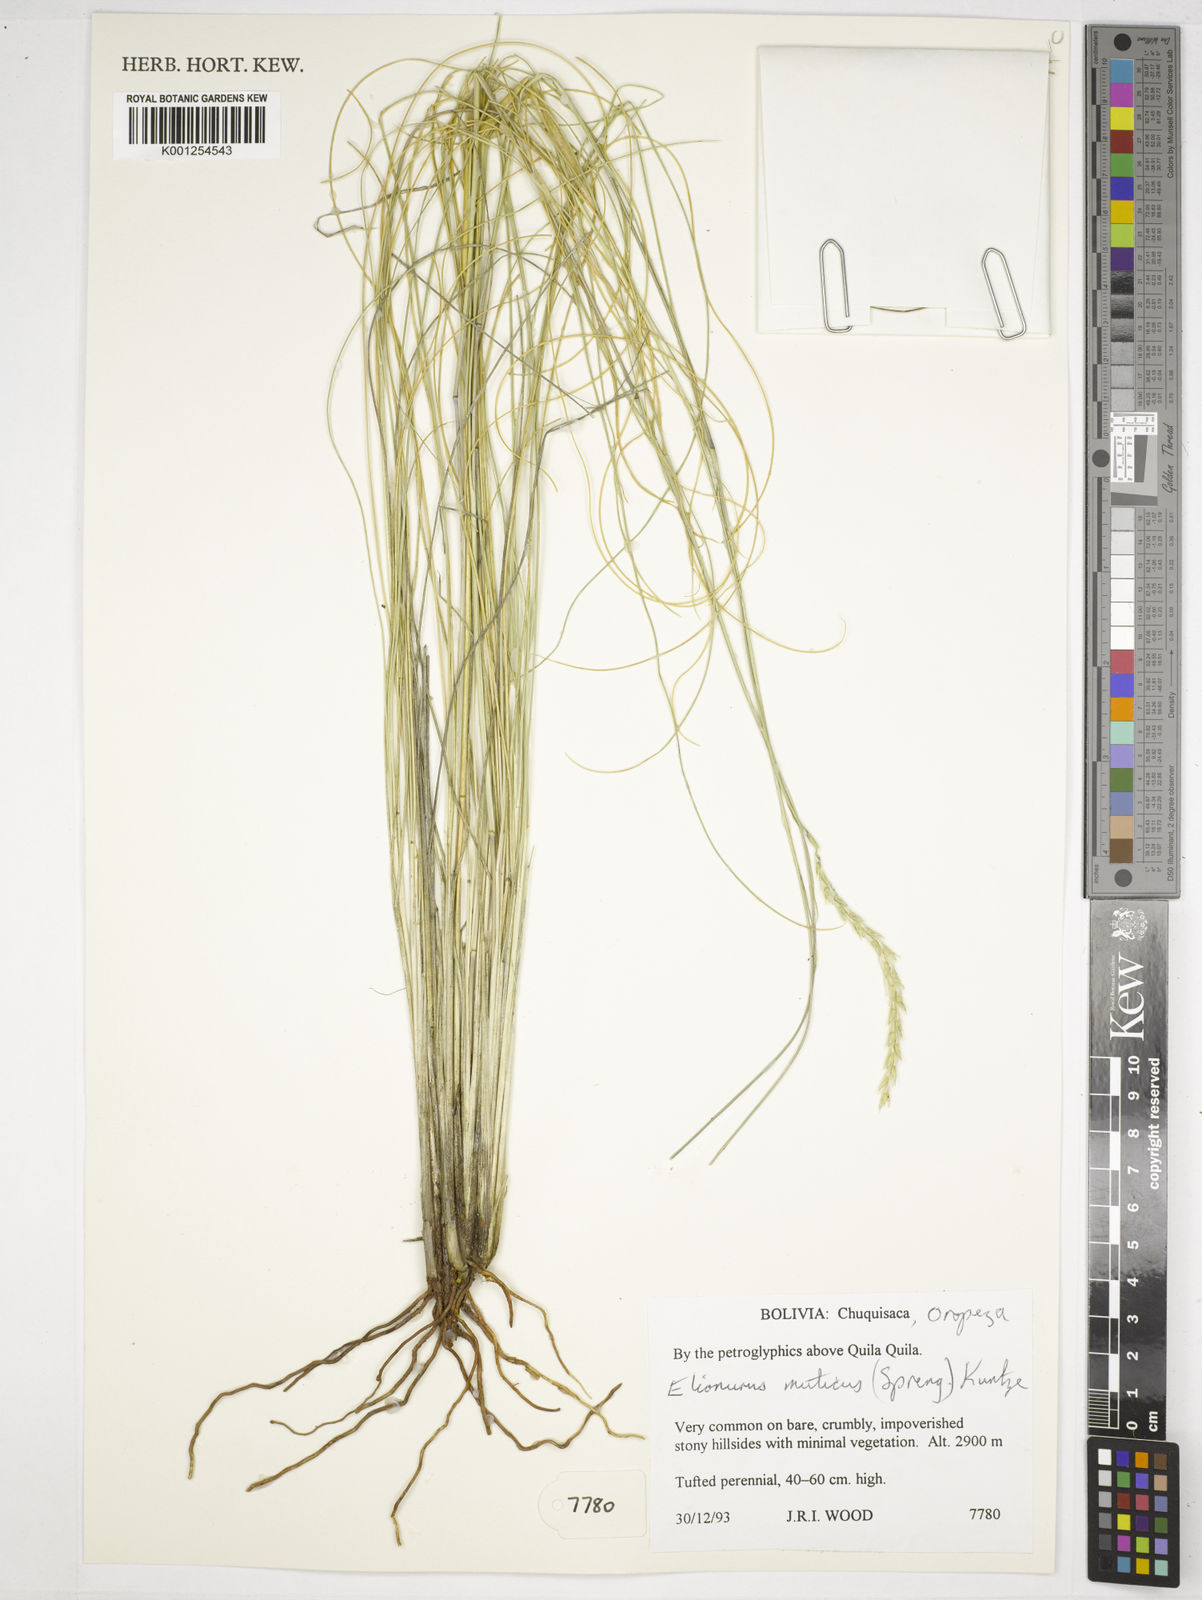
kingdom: Plantae
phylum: Tracheophyta
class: Liliopsida
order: Poales
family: Poaceae
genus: Elionurus
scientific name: Elionurus muticus
